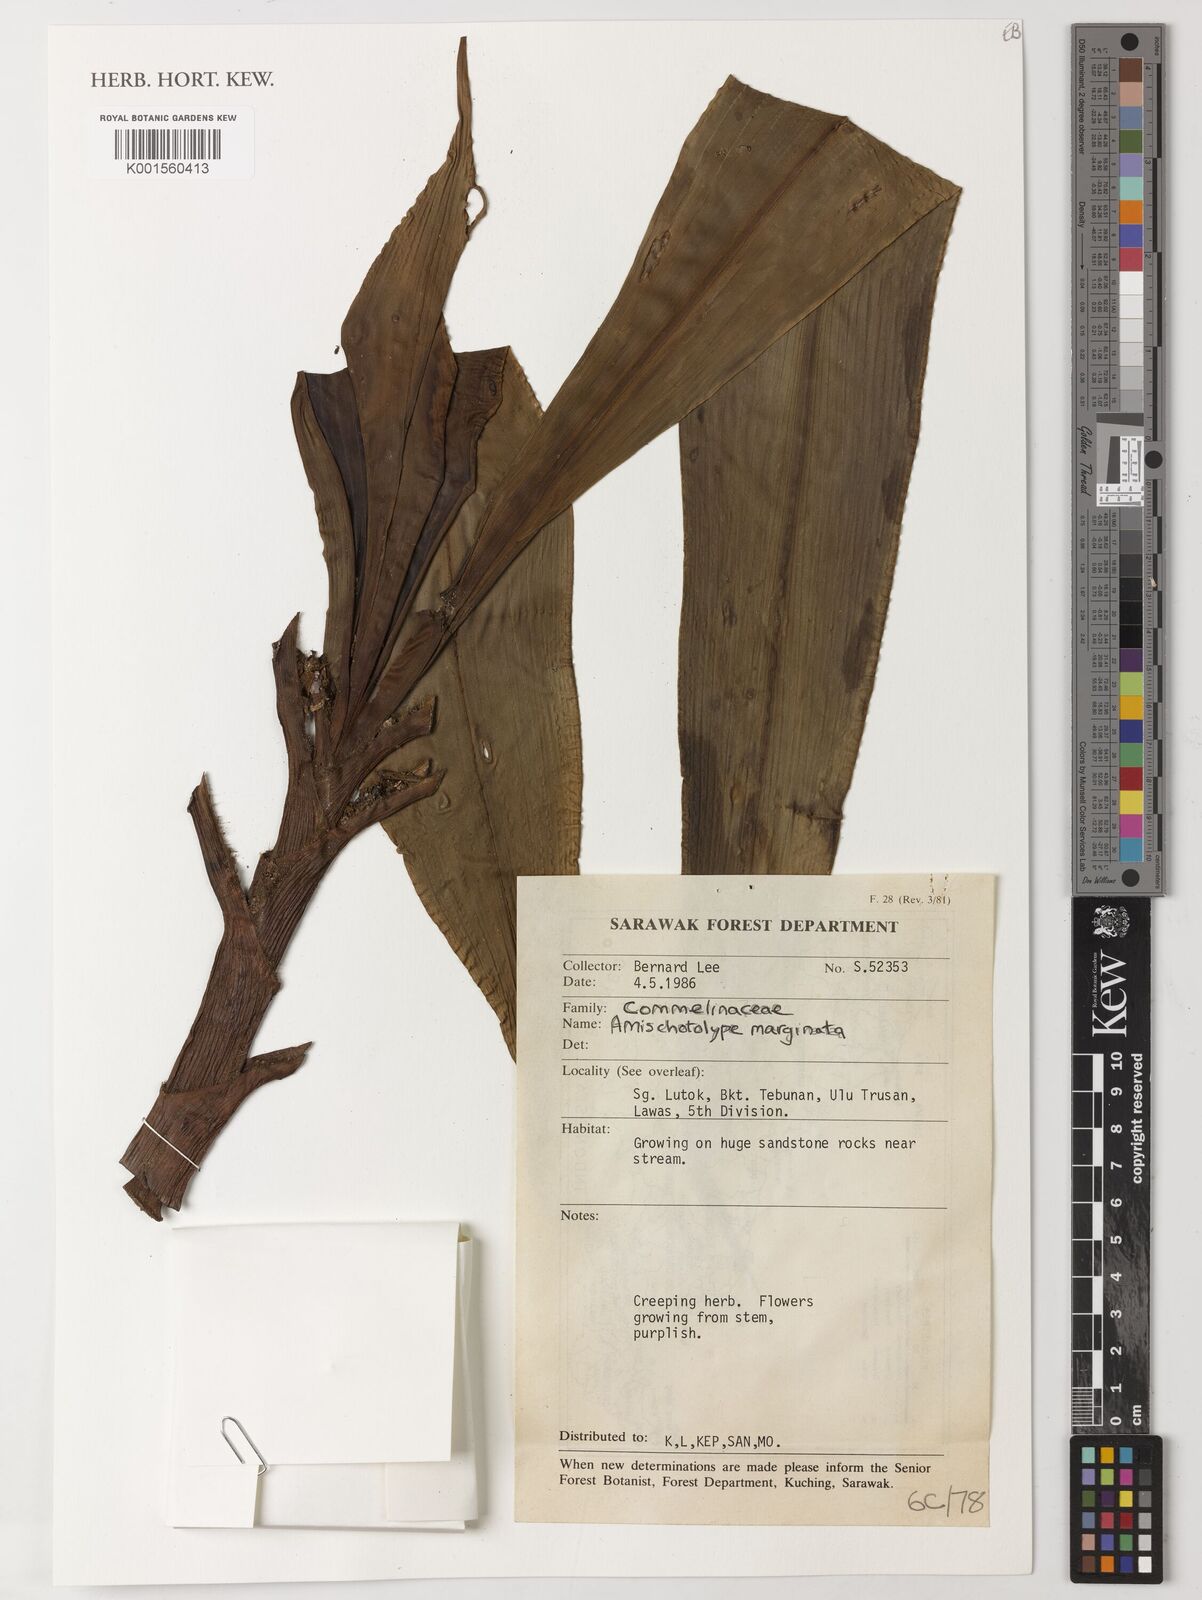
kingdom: Plantae
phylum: Tracheophyta
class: Liliopsida
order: Commelinales
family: Commelinaceae
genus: Amischotolype
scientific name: Amischotolype marginata
